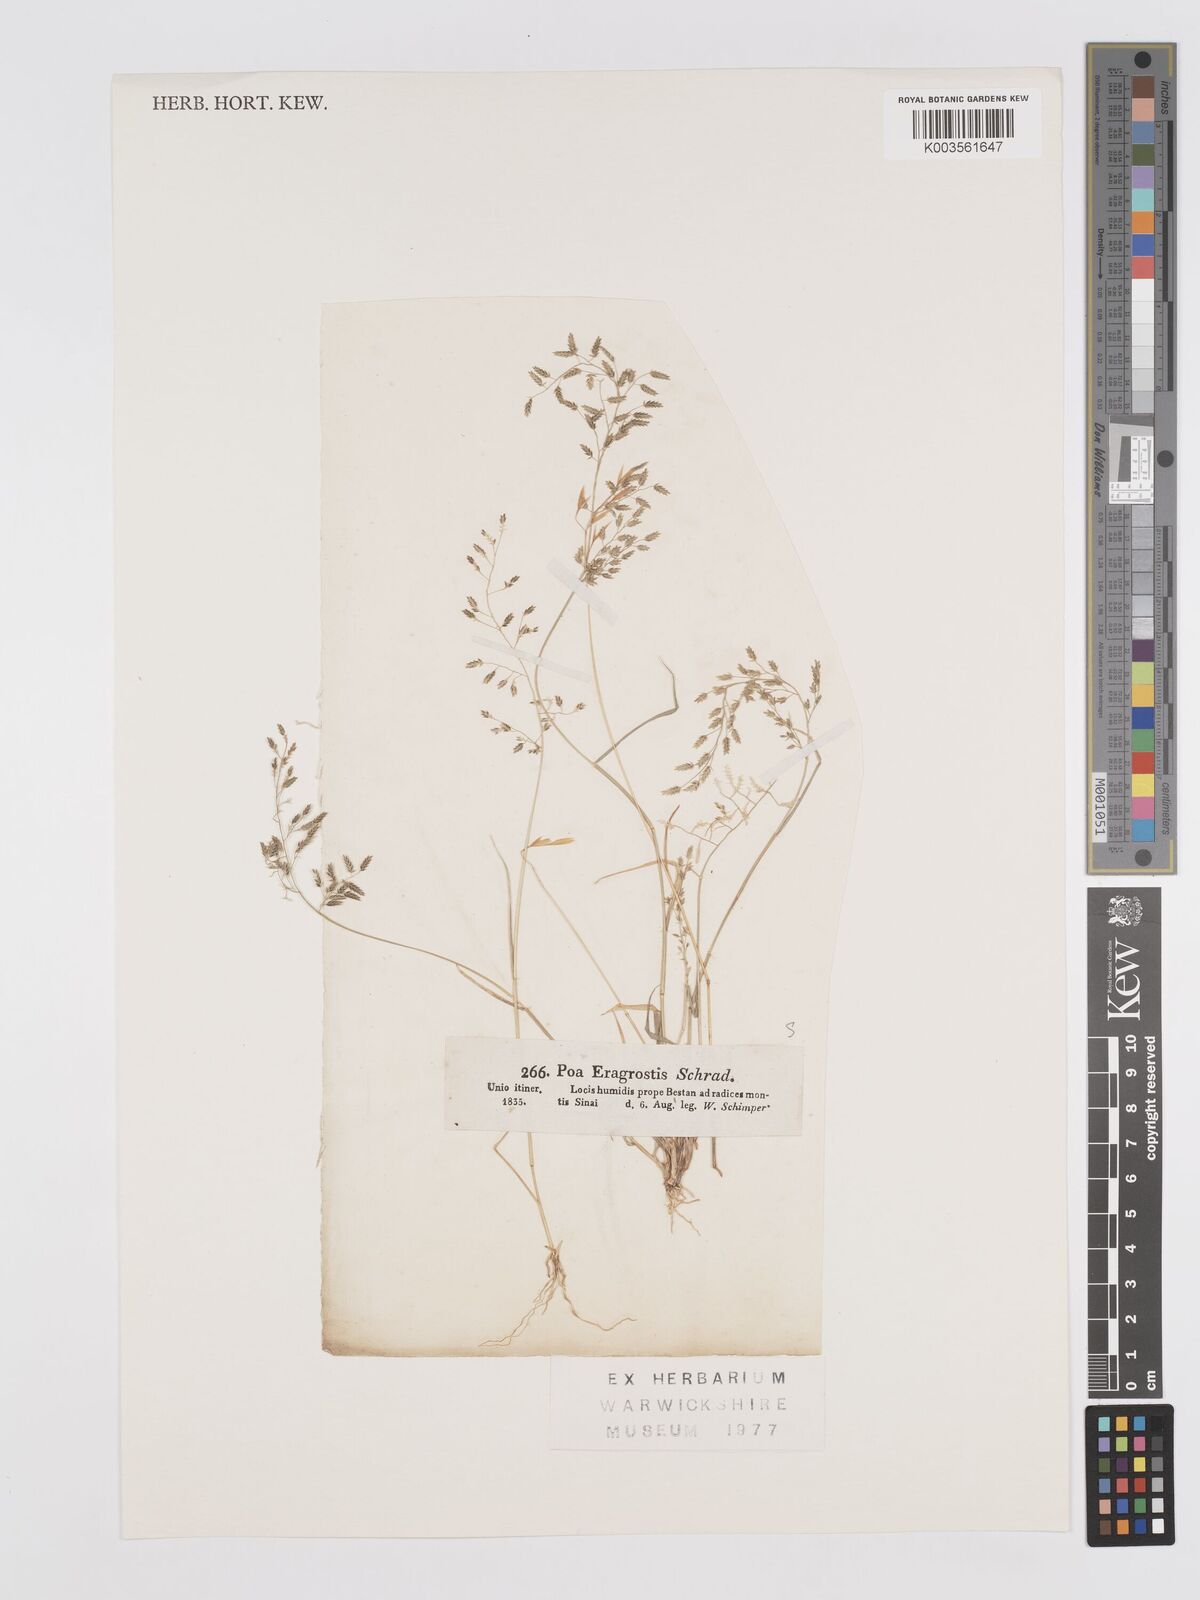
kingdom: Plantae
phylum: Tracheophyta
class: Liliopsida
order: Poales
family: Poaceae
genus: Eragrostis
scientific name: Eragrostis minor
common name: Small love-grass
